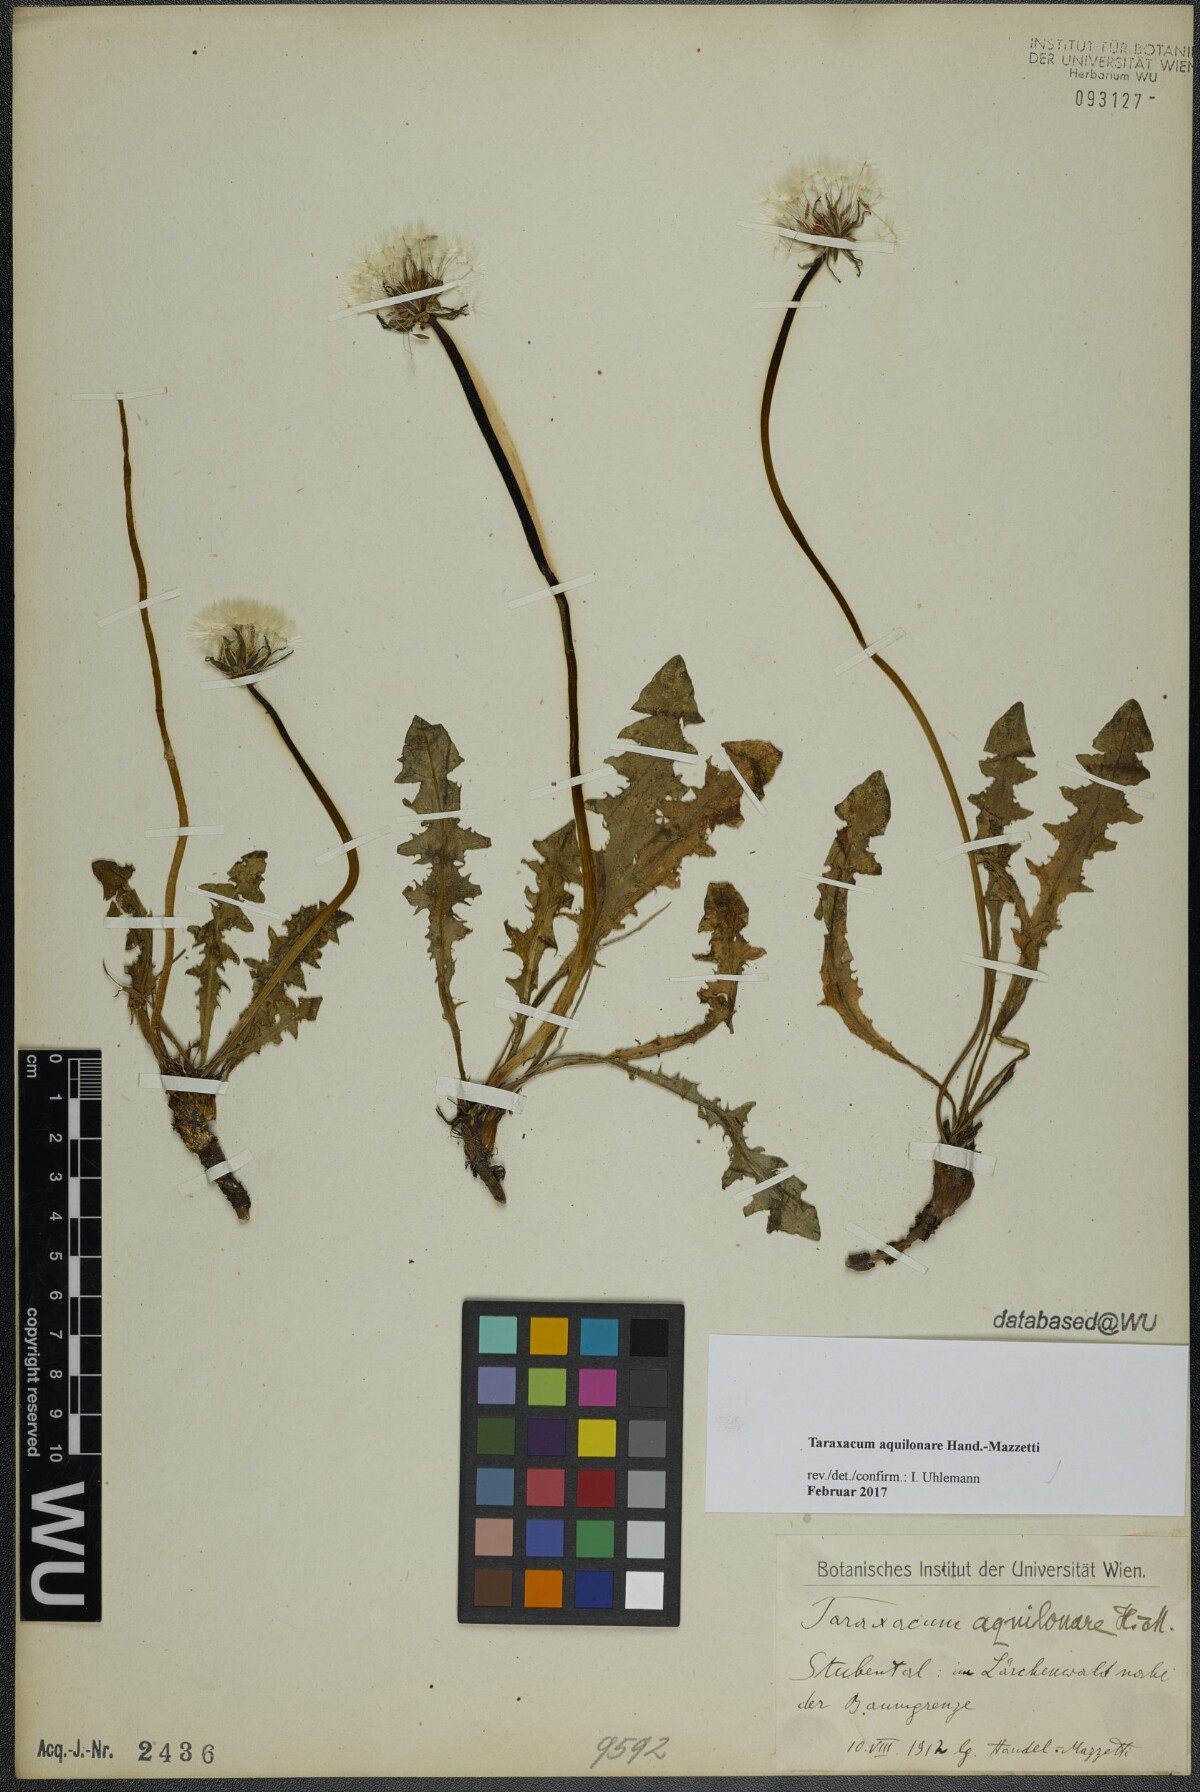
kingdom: Plantae
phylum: Tracheophyta
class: Magnoliopsida
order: Asterales
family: Asteraceae
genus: Taraxacum
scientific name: Taraxacum aquilonare
